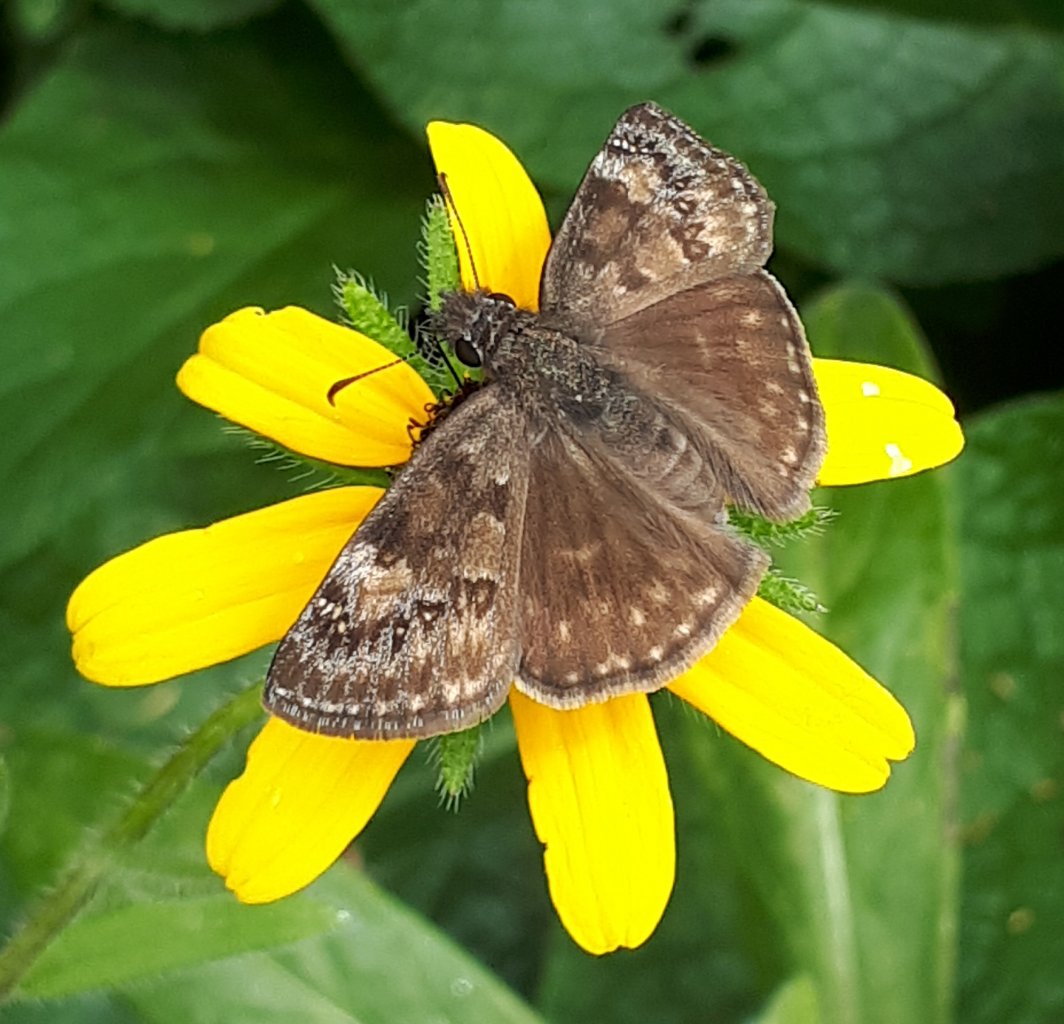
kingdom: Animalia
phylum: Arthropoda
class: Insecta
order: Lepidoptera
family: Hesperiidae
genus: Gesta
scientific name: Gesta
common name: Wild Indigo Duskywing
